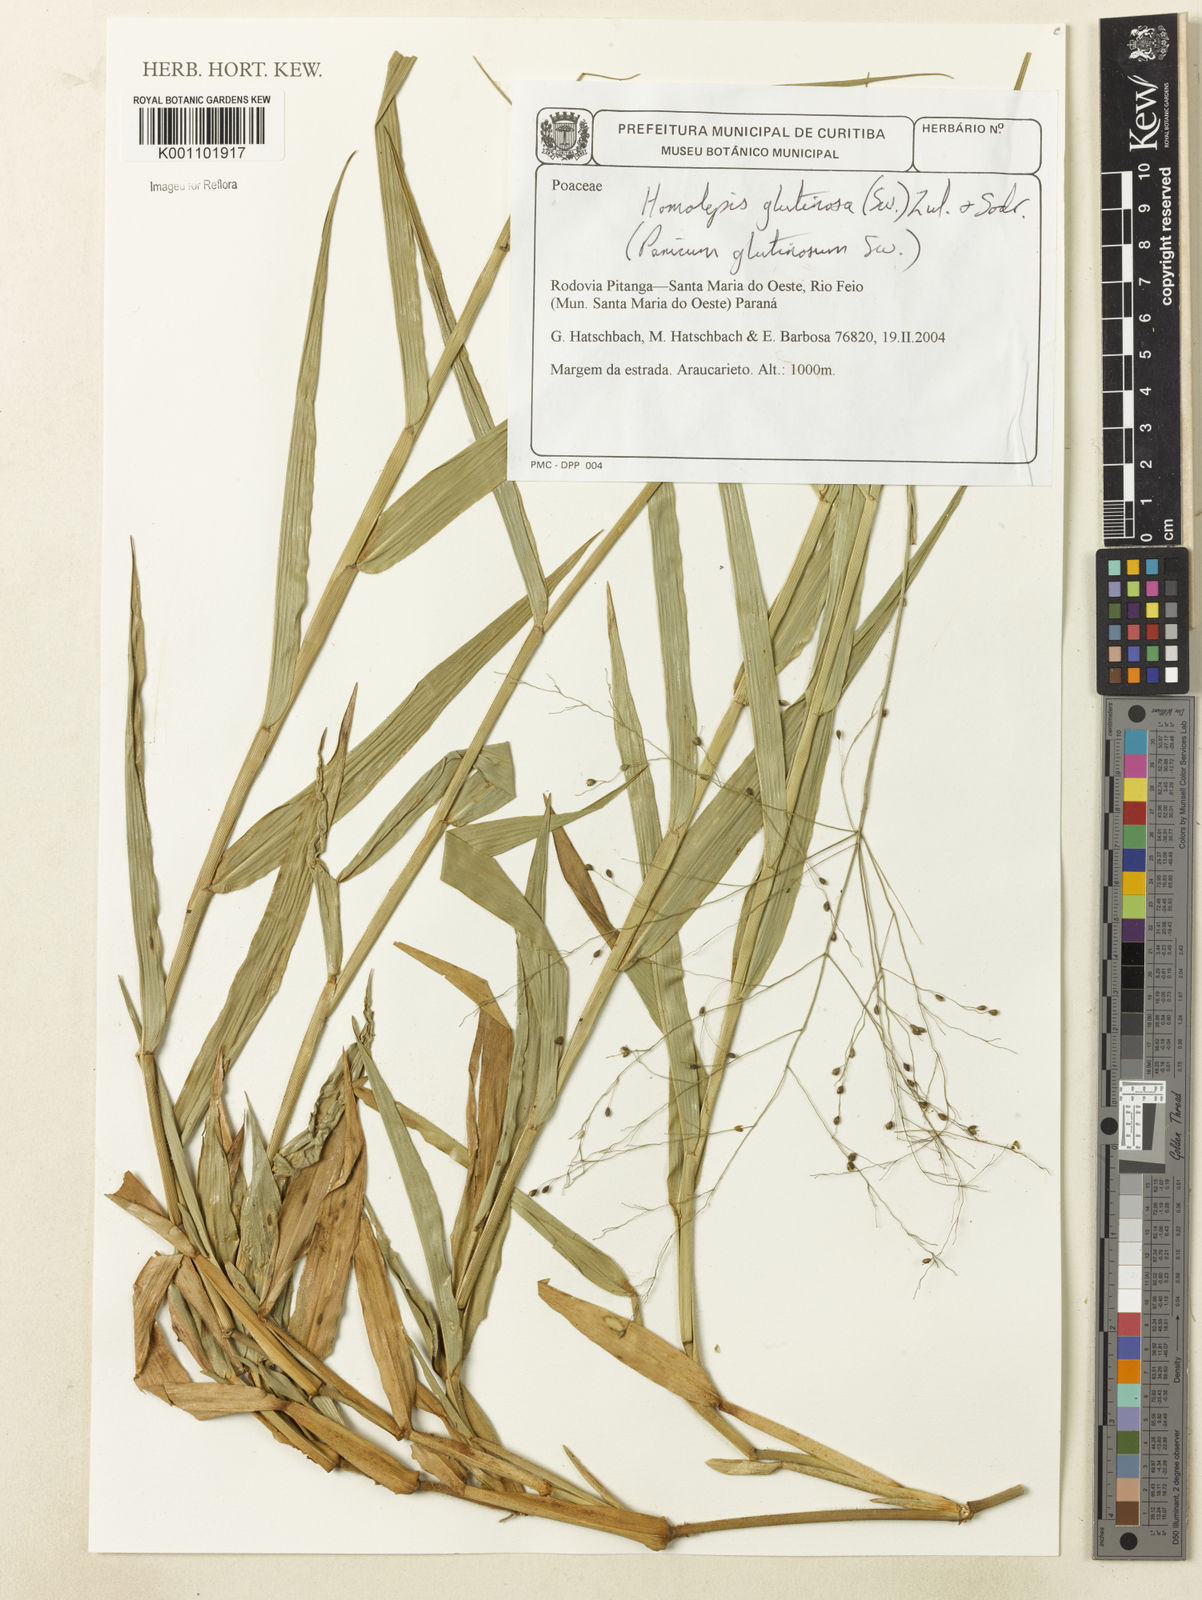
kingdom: Plantae
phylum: Tracheophyta
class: Liliopsida
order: Poales
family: Poaceae
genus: Homolepis
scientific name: Homolepis glutinosa
